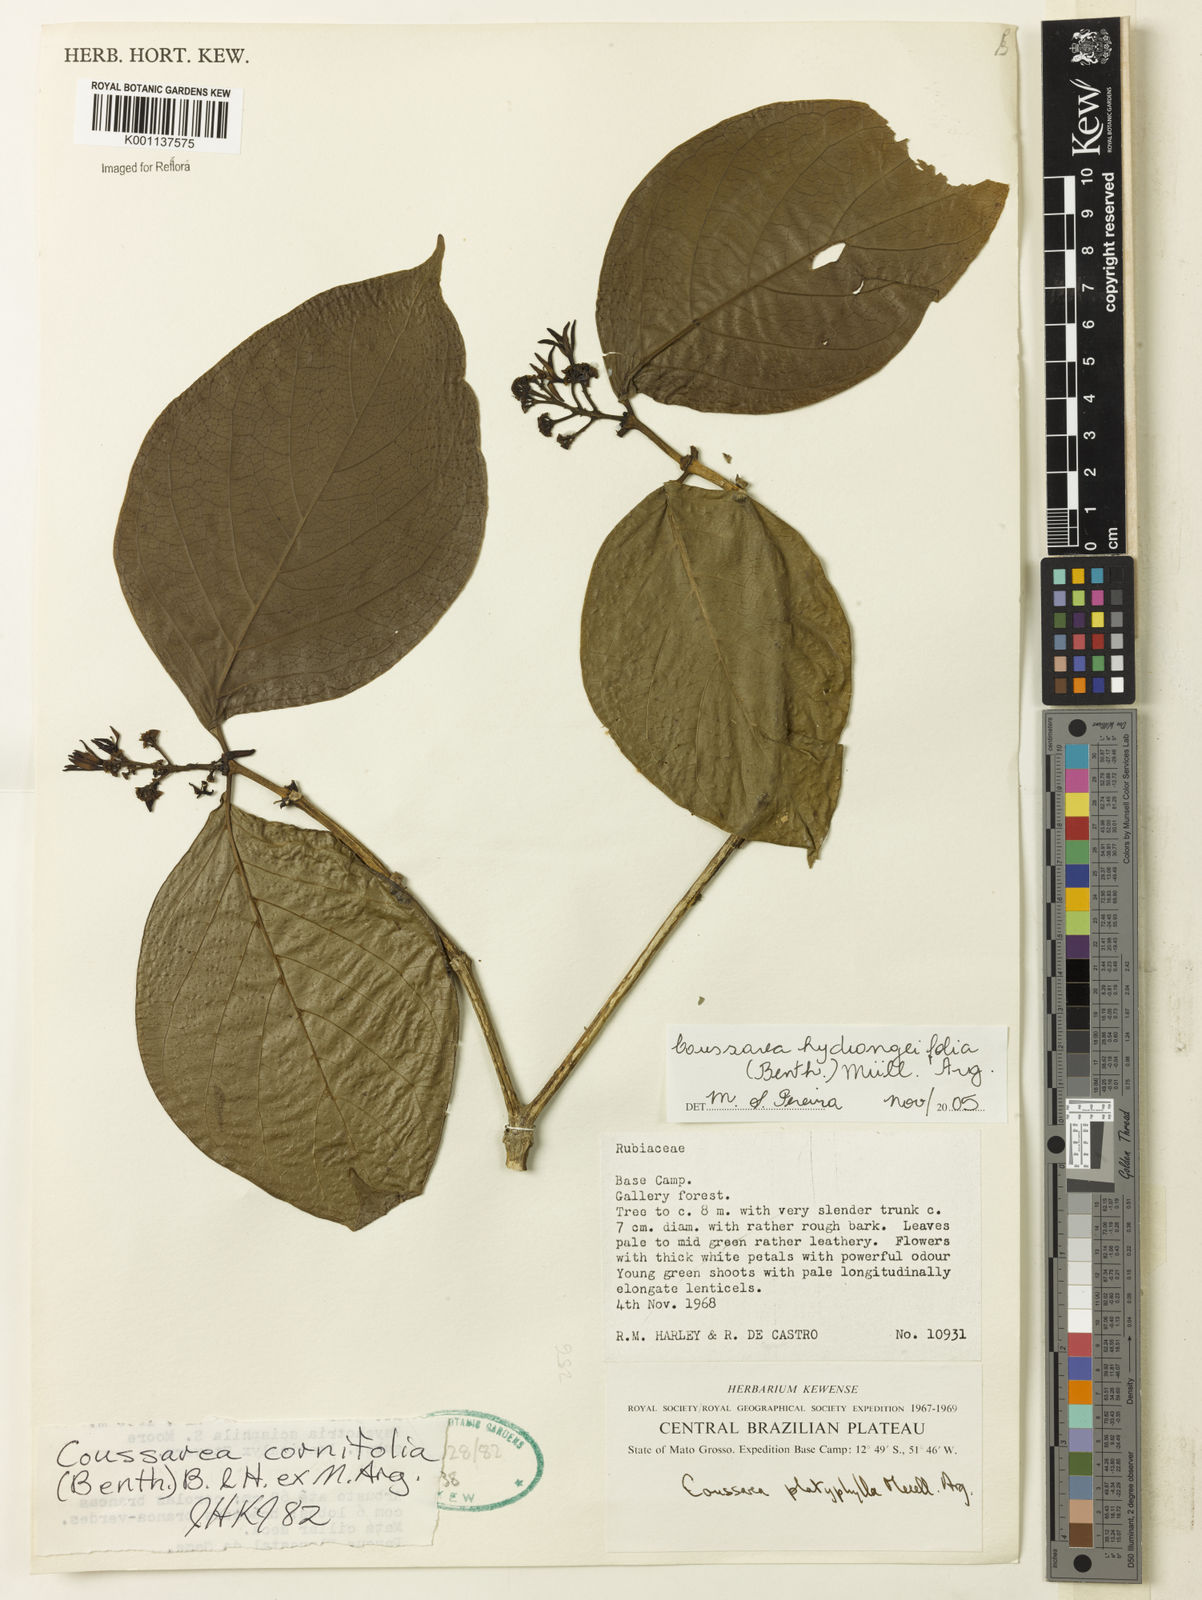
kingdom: Plantae
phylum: Tracheophyta
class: Magnoliopsida
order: Gentianales
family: Rubiaceae
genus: Coussarea
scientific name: Coussarea
